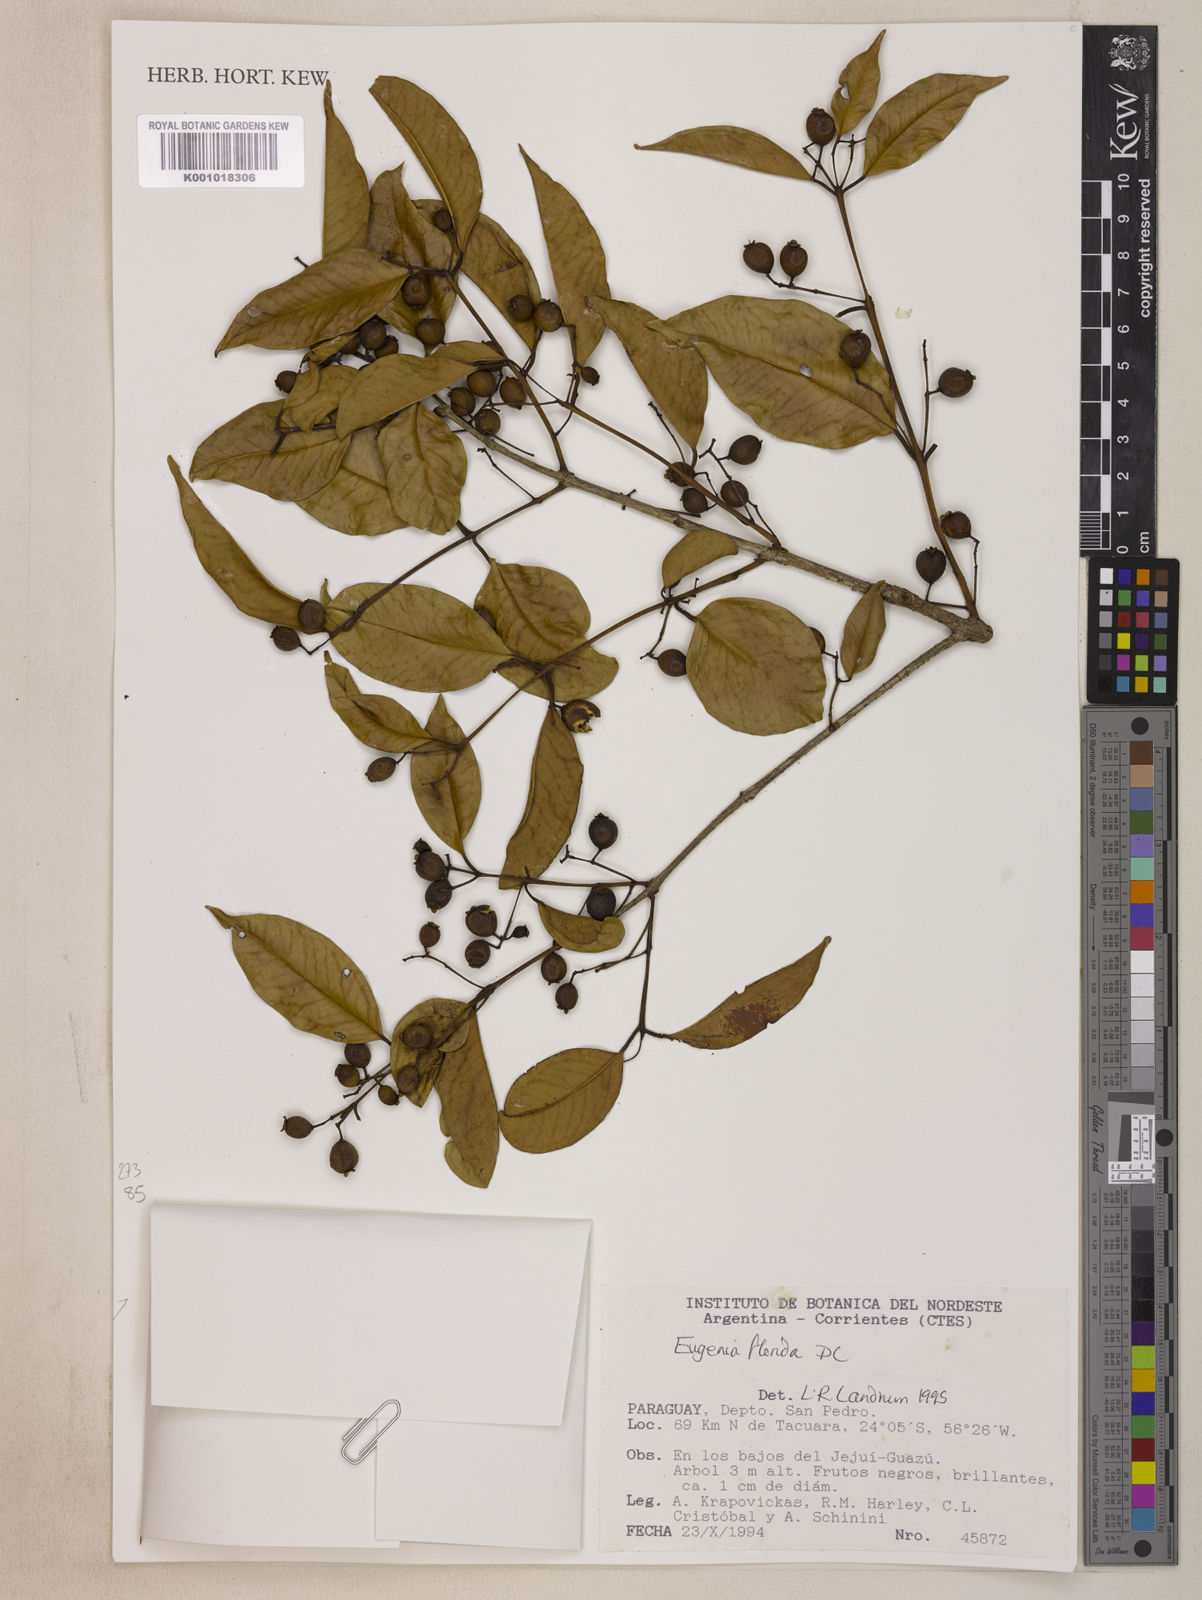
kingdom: Plantae
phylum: Tracheophyta
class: Magnoliopsida
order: Myrtales
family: Myrtaceae
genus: Eugenia
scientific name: Eugenia florida
